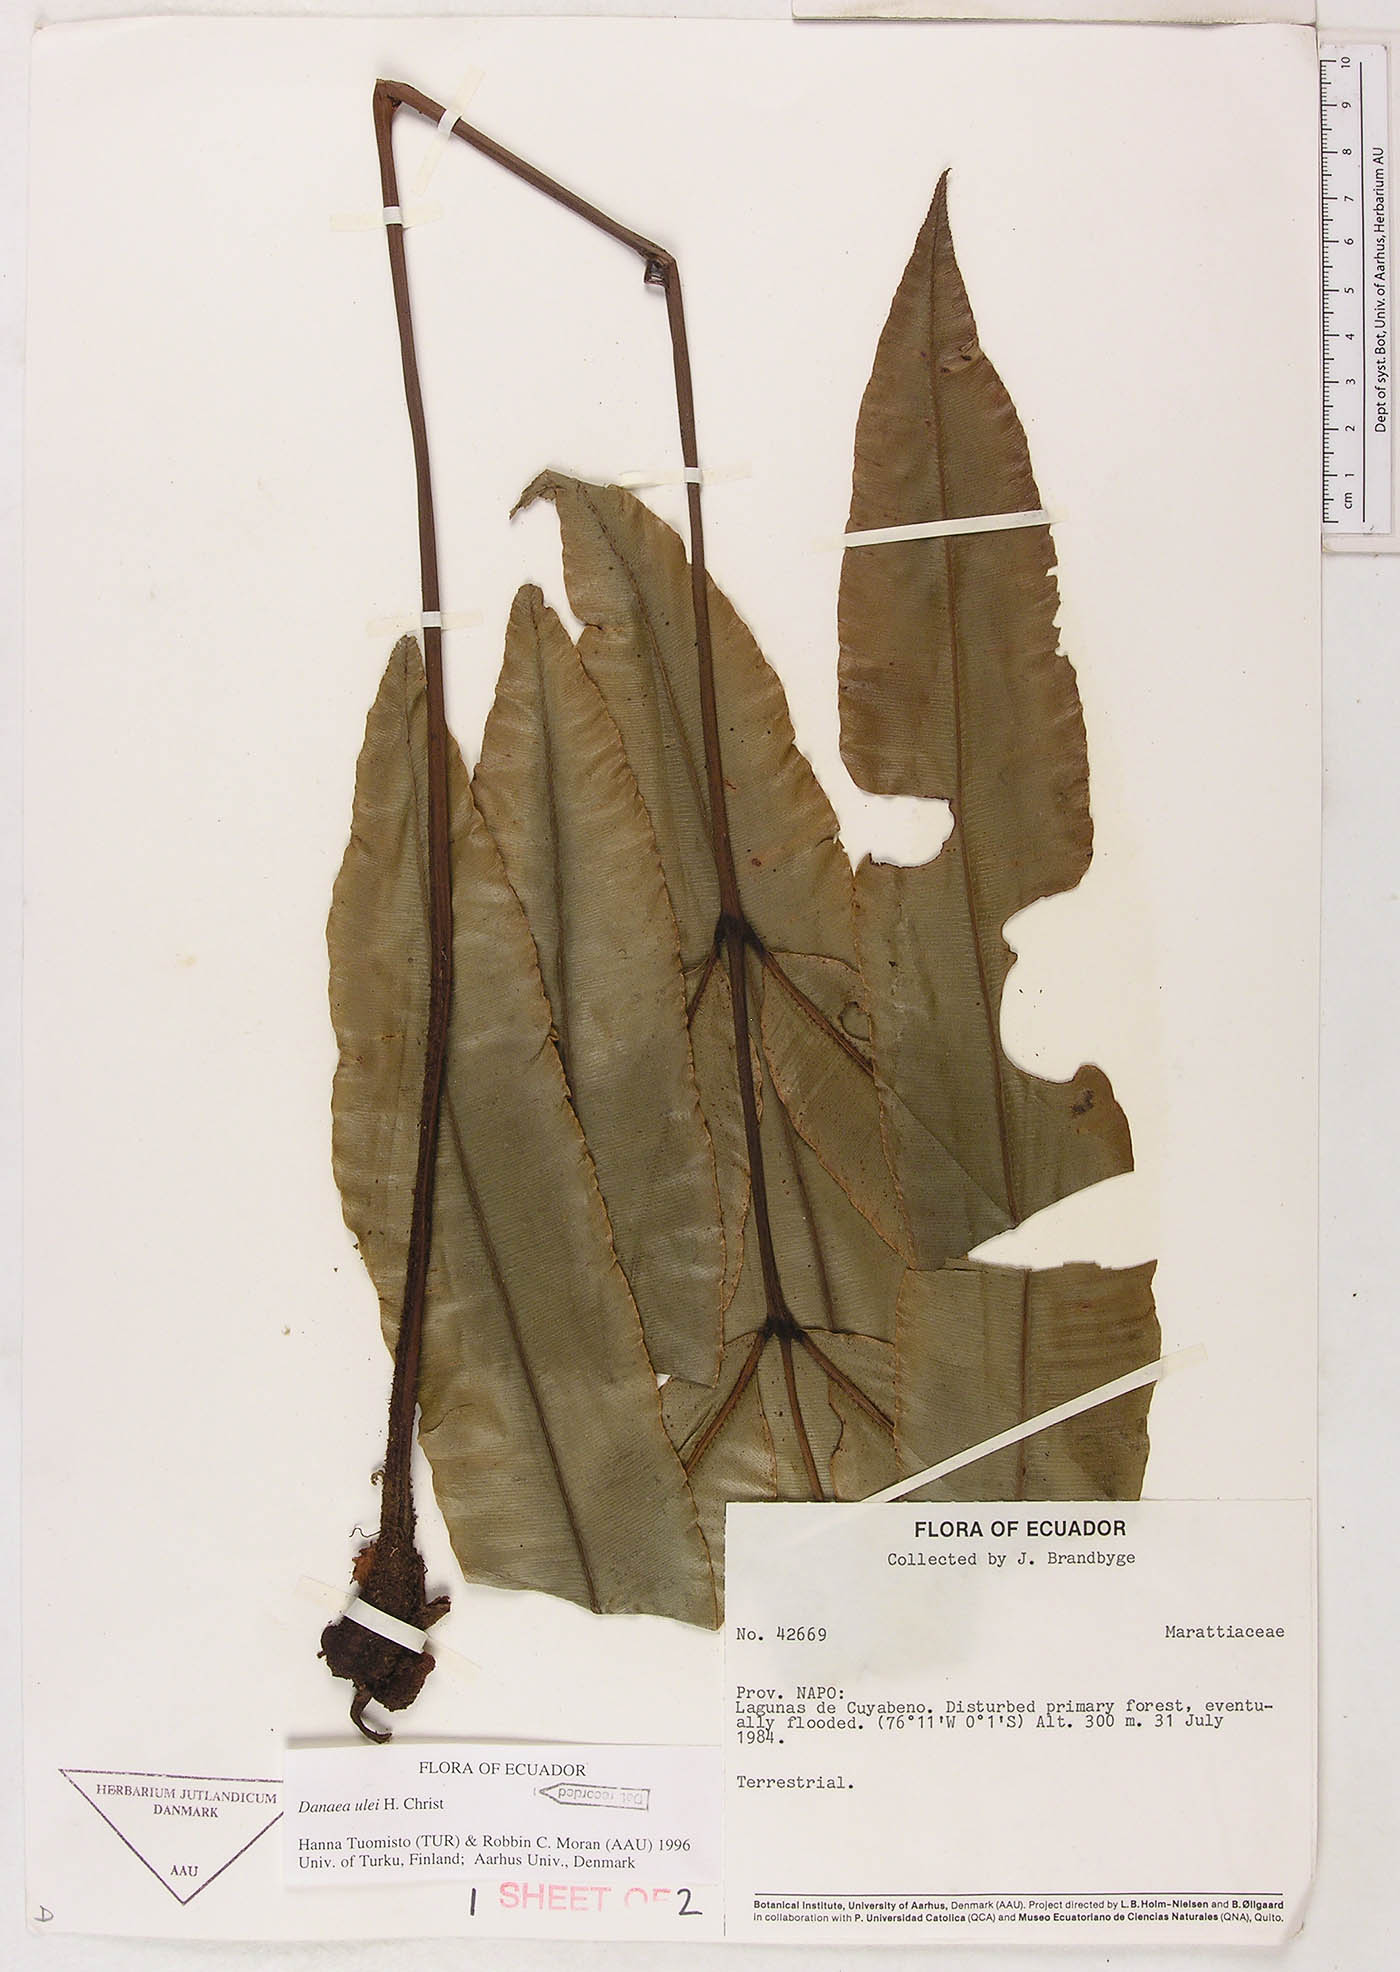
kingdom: Plantae
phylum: Tracheophyta
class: Polypodiopsida
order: Marattiales
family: Marattiaceae
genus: Danaea
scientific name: Danaea cartilaginea
